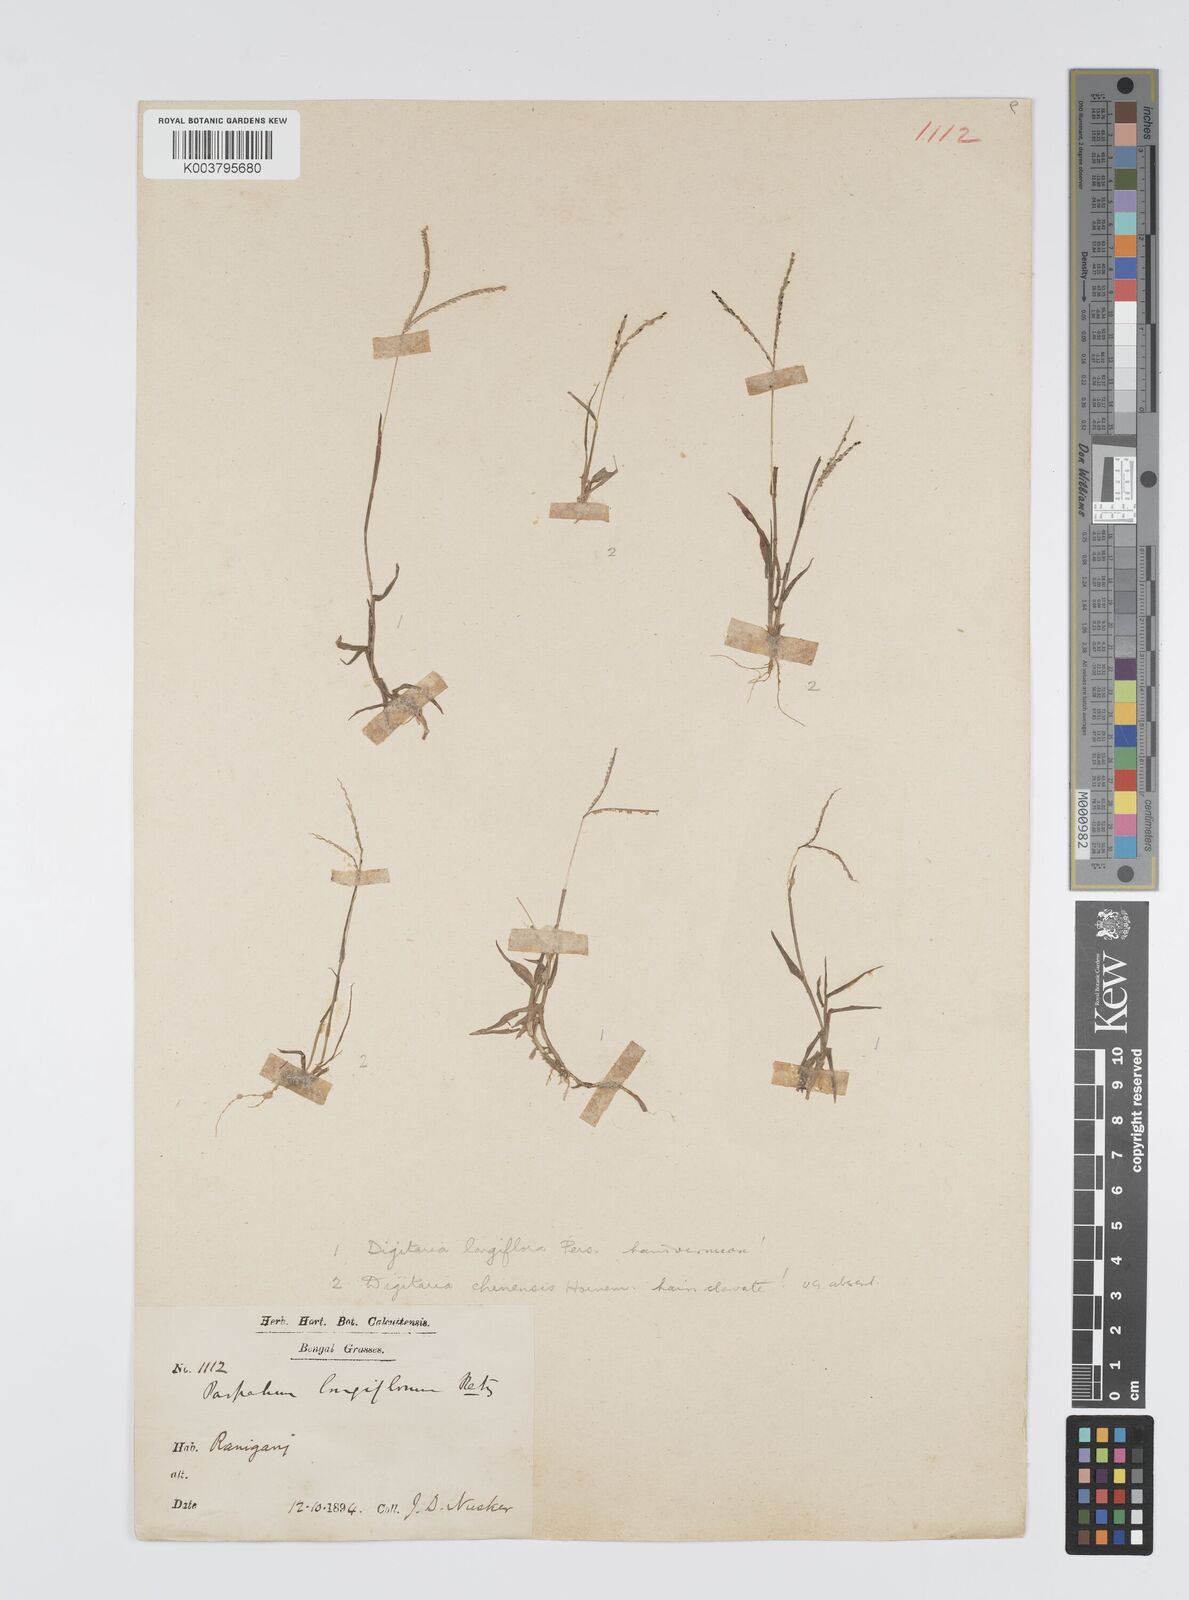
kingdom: Plantae
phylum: Tracheophyta
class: Liliopsida
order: Poales
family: Poaceae
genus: Digitaria
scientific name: Digitaria longiflora
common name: Wire crabgrass
